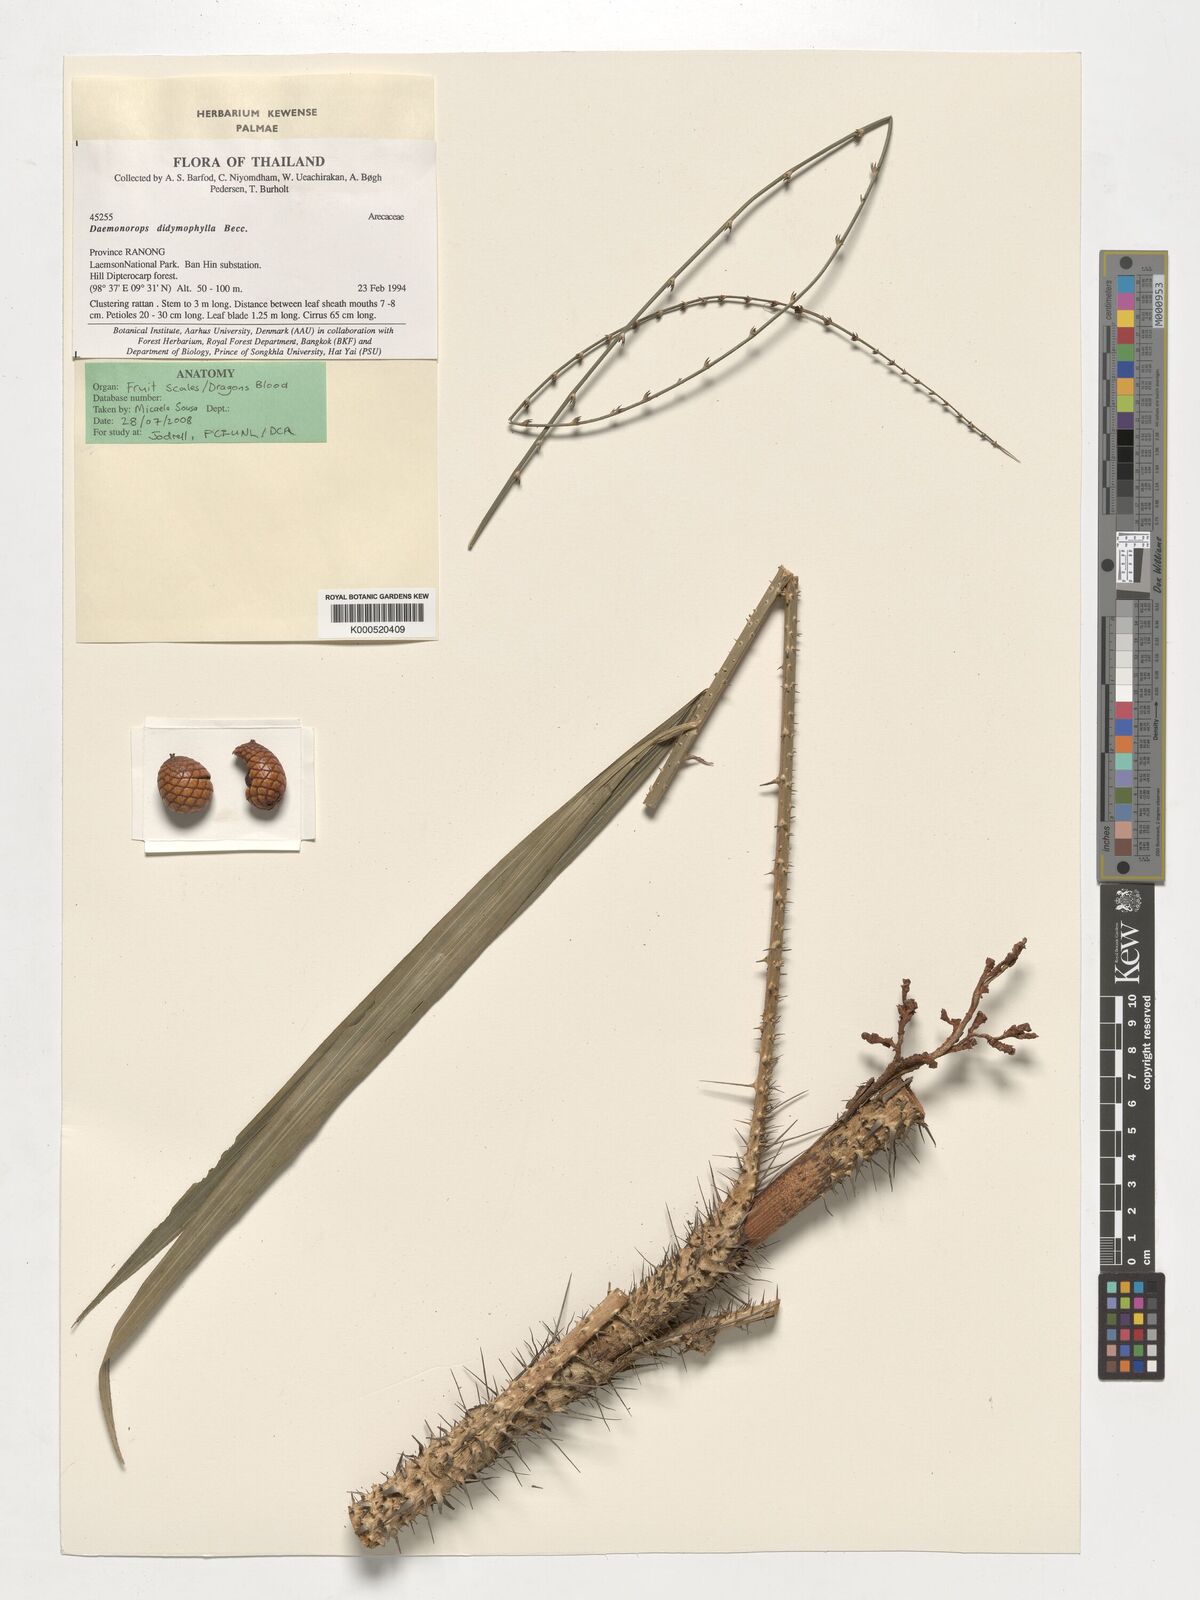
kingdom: Plantae
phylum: Tracheophyta
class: Liliopsida
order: Arecales
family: Arecaceae
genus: Calamus
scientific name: Calamus gracilipes
